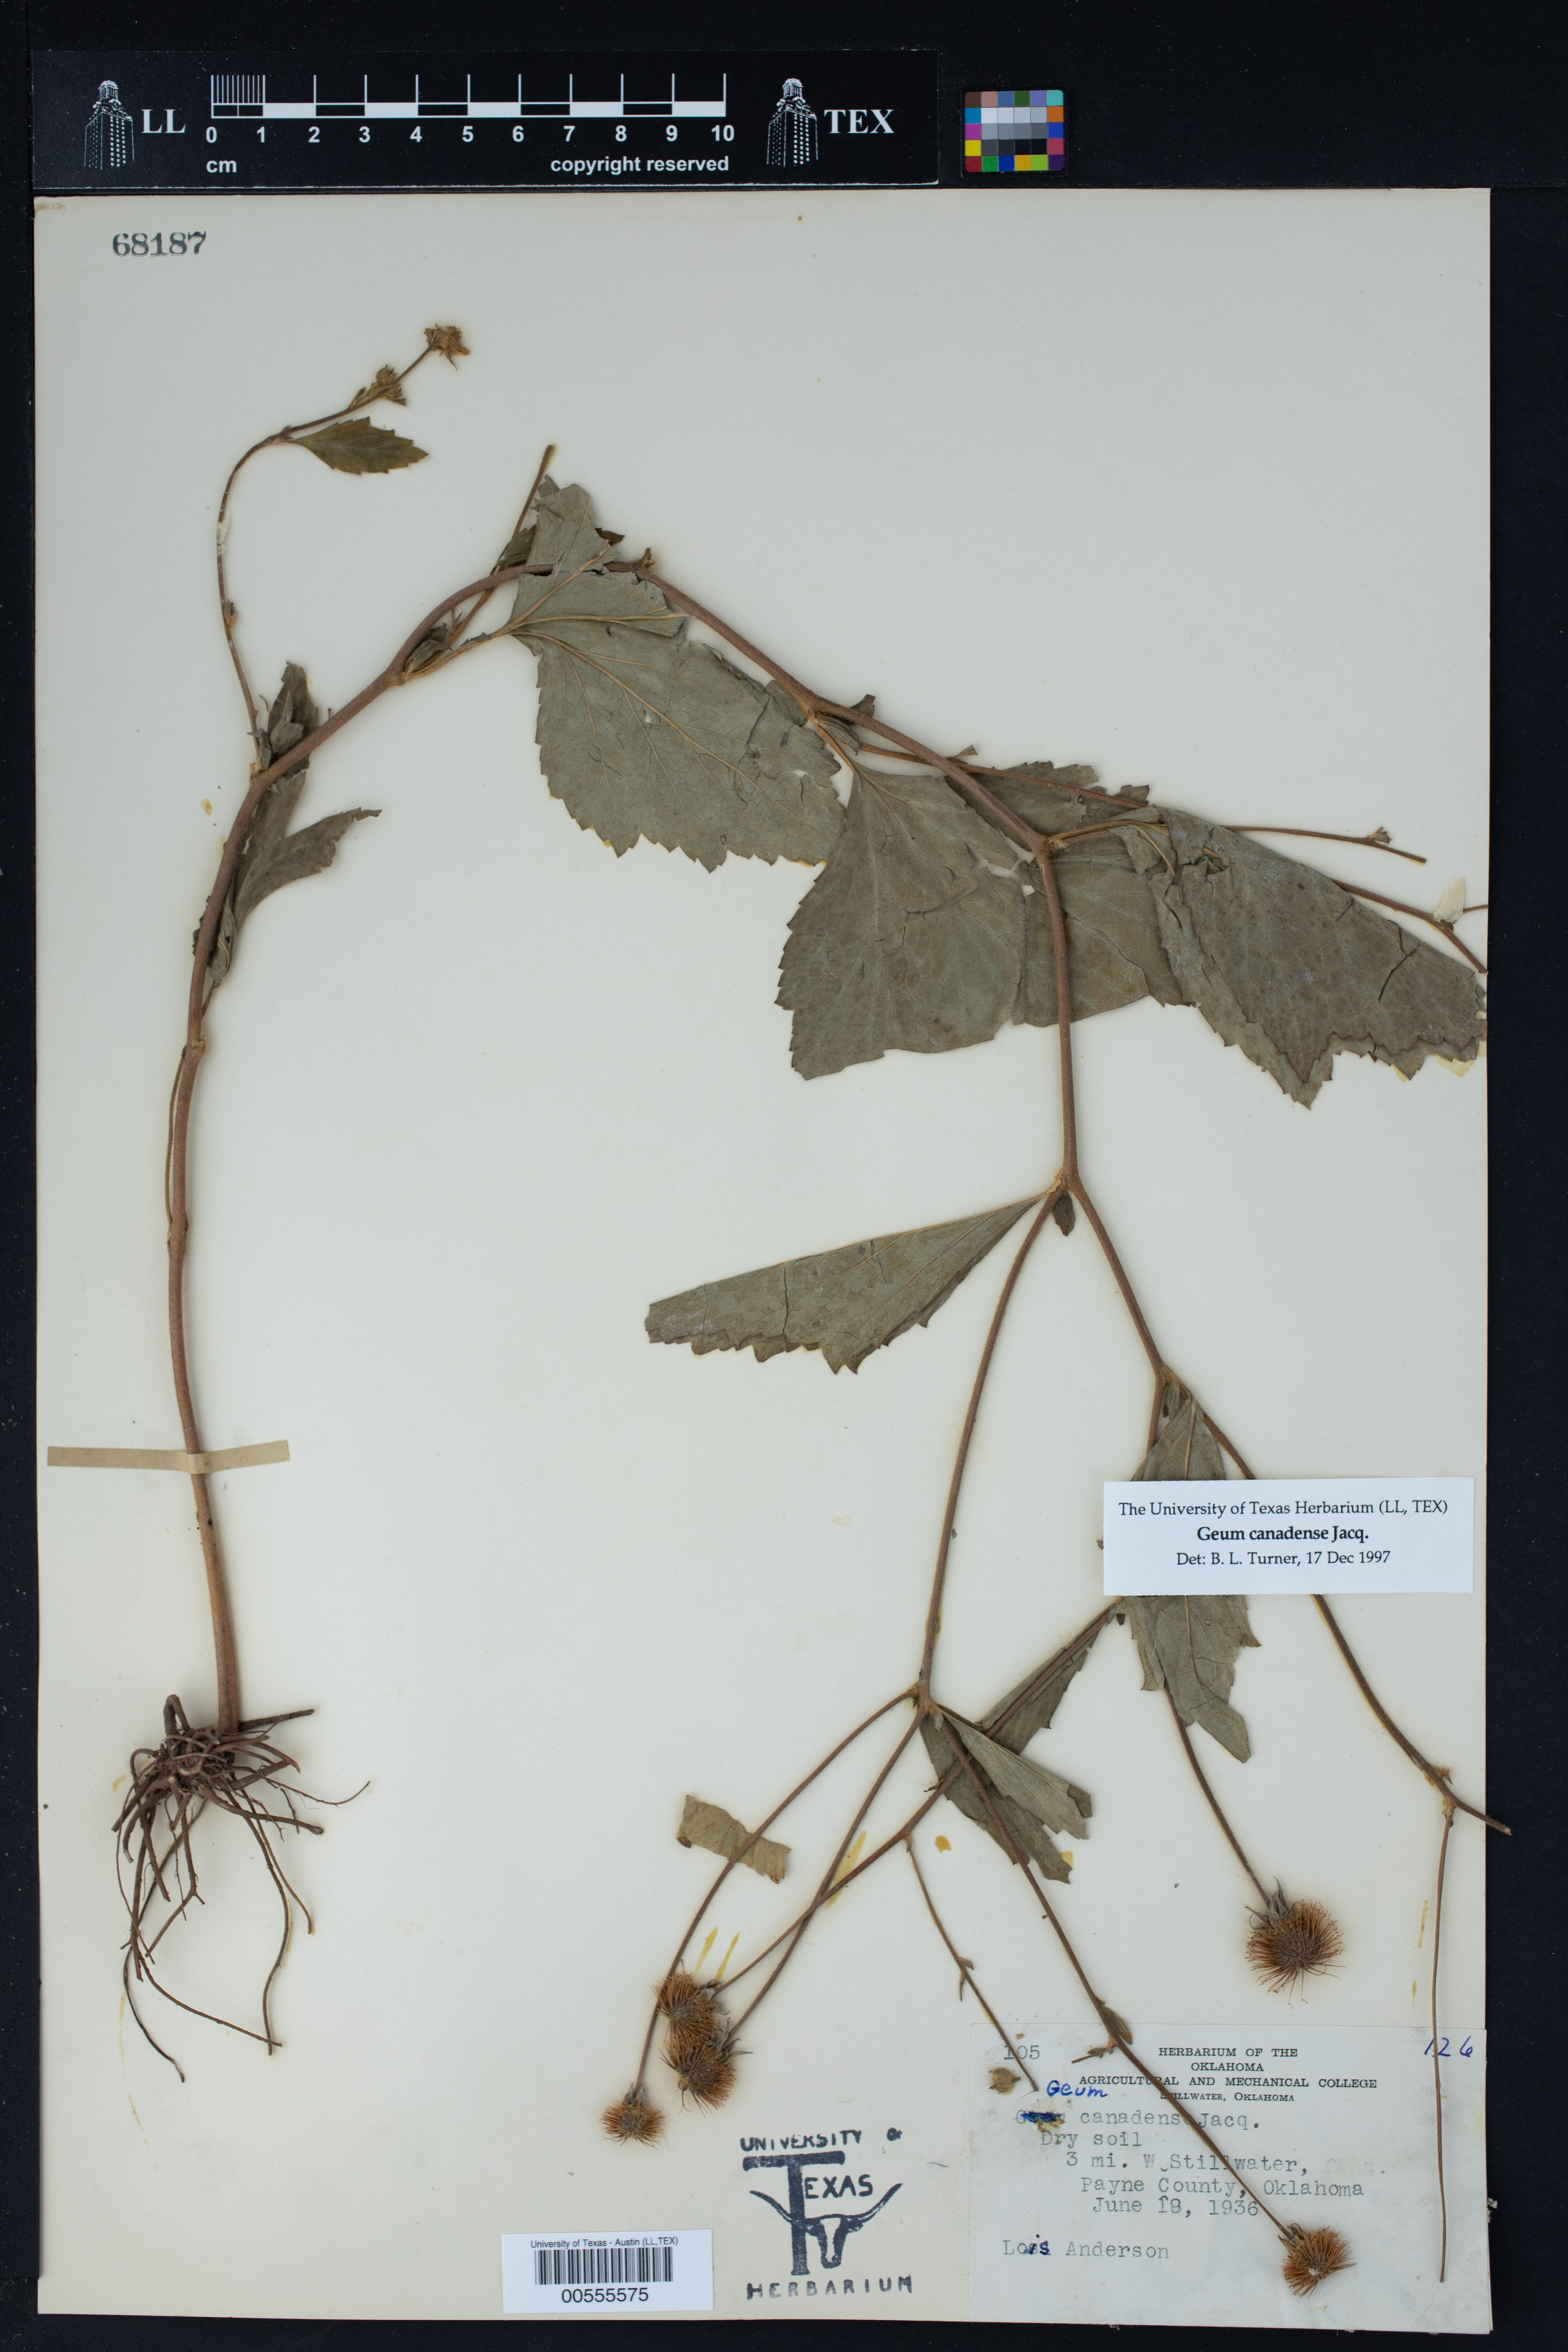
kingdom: Plantae
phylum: Tracheophyta
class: Magnoliopsida
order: Rosales
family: Rosaceae
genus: Geum
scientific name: Geum canadense
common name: White avens
